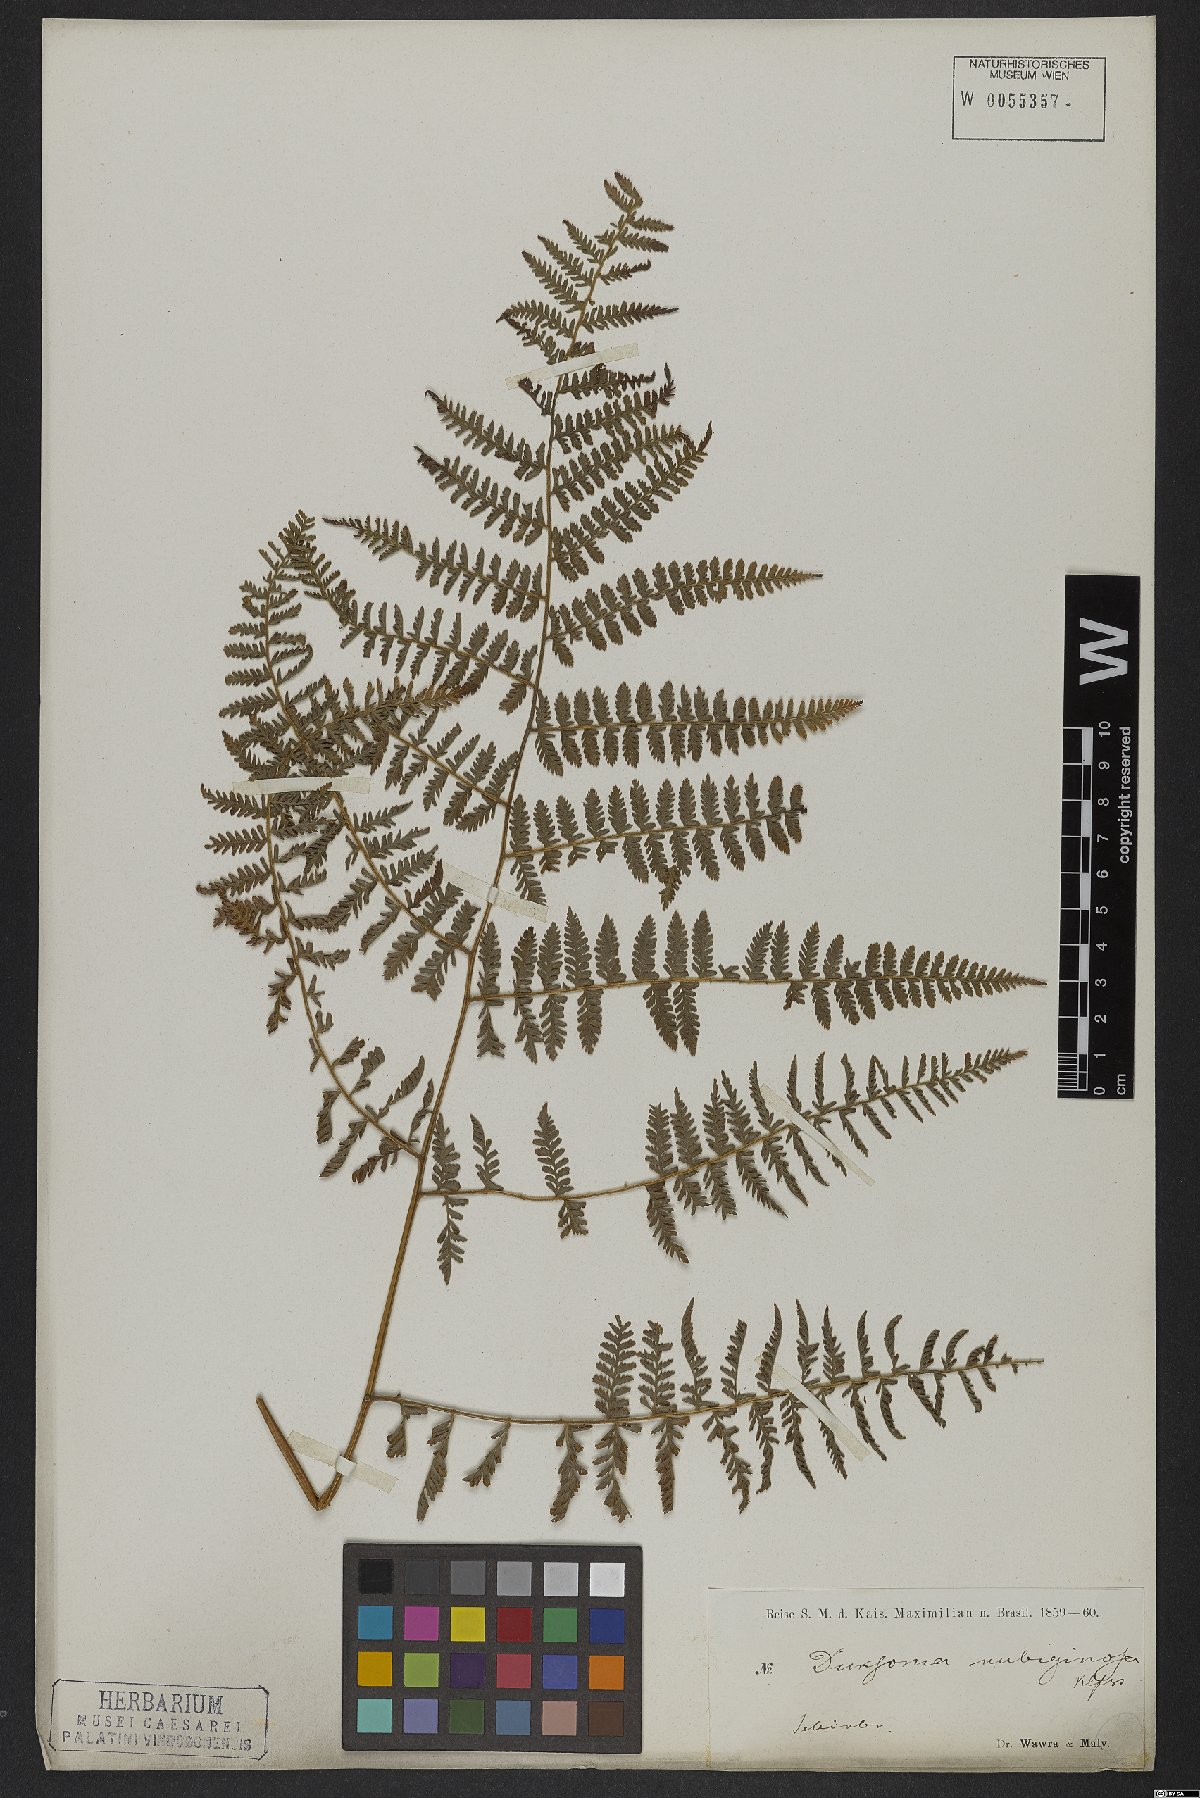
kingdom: Plantae
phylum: Tracheophyta
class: Polypodiopsida
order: Polypodiales
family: Dennstaedtiaceae
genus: Dennstaedtia
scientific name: Dennstaedtia cicutaria
